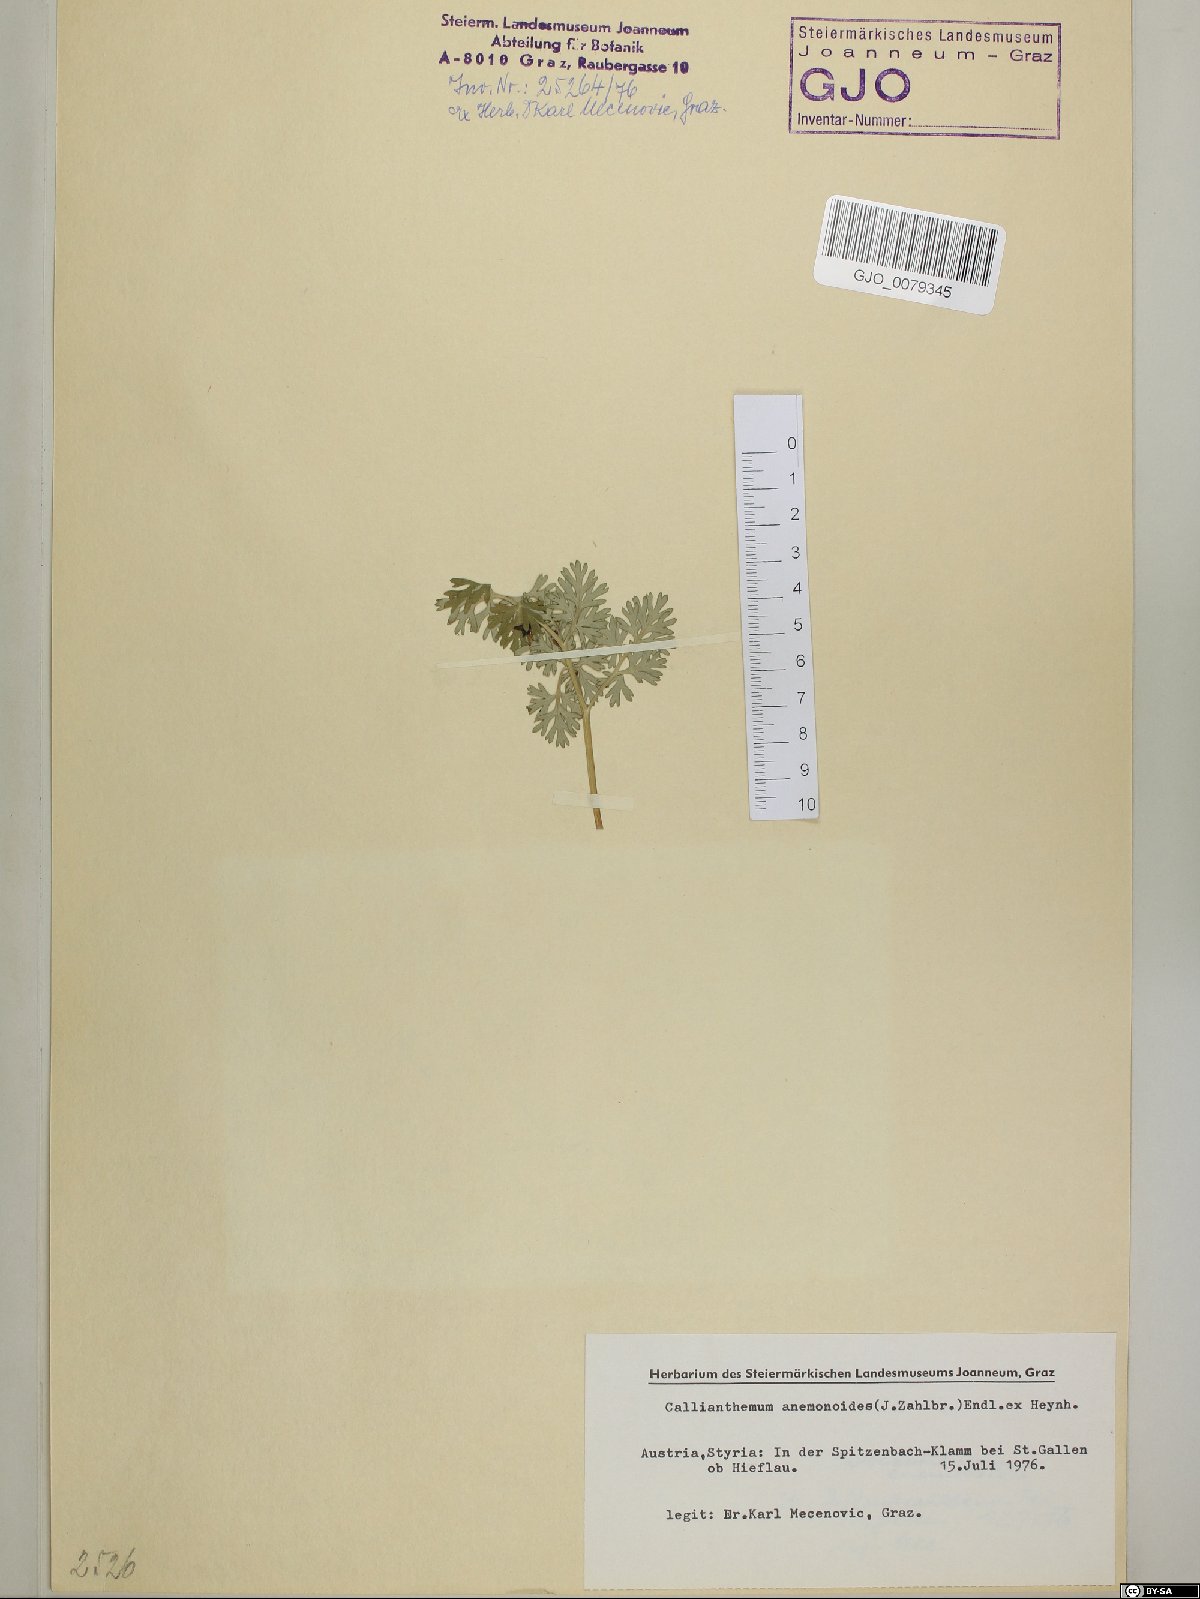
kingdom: Plantae
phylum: Tracheophyta
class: Magnoliopsida
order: Ranunculales
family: Ranunculaceae
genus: Callianthemum
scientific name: Callianthemum anemonoides
